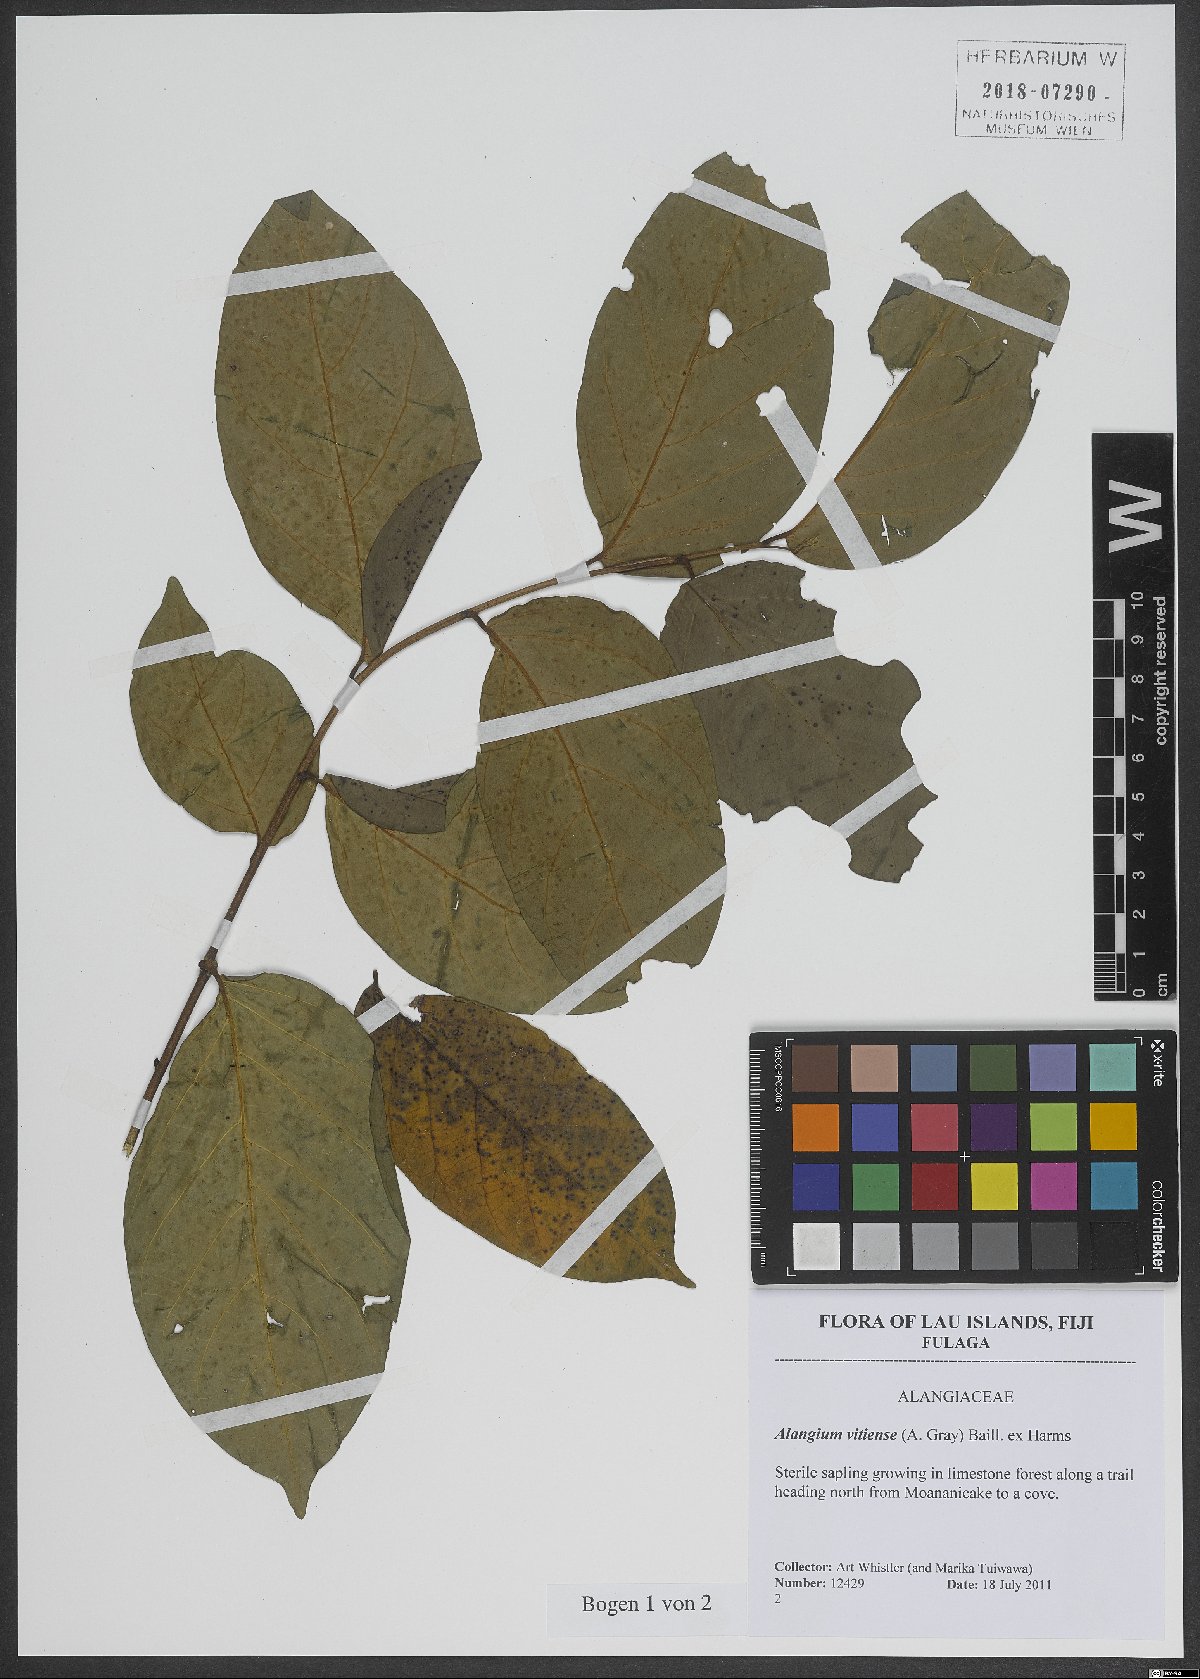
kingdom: Plantae
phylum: Tracheophyta
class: Magnoliopsida
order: Cornales
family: Cornaceae
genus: Alangium
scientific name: Alangium vitiense
